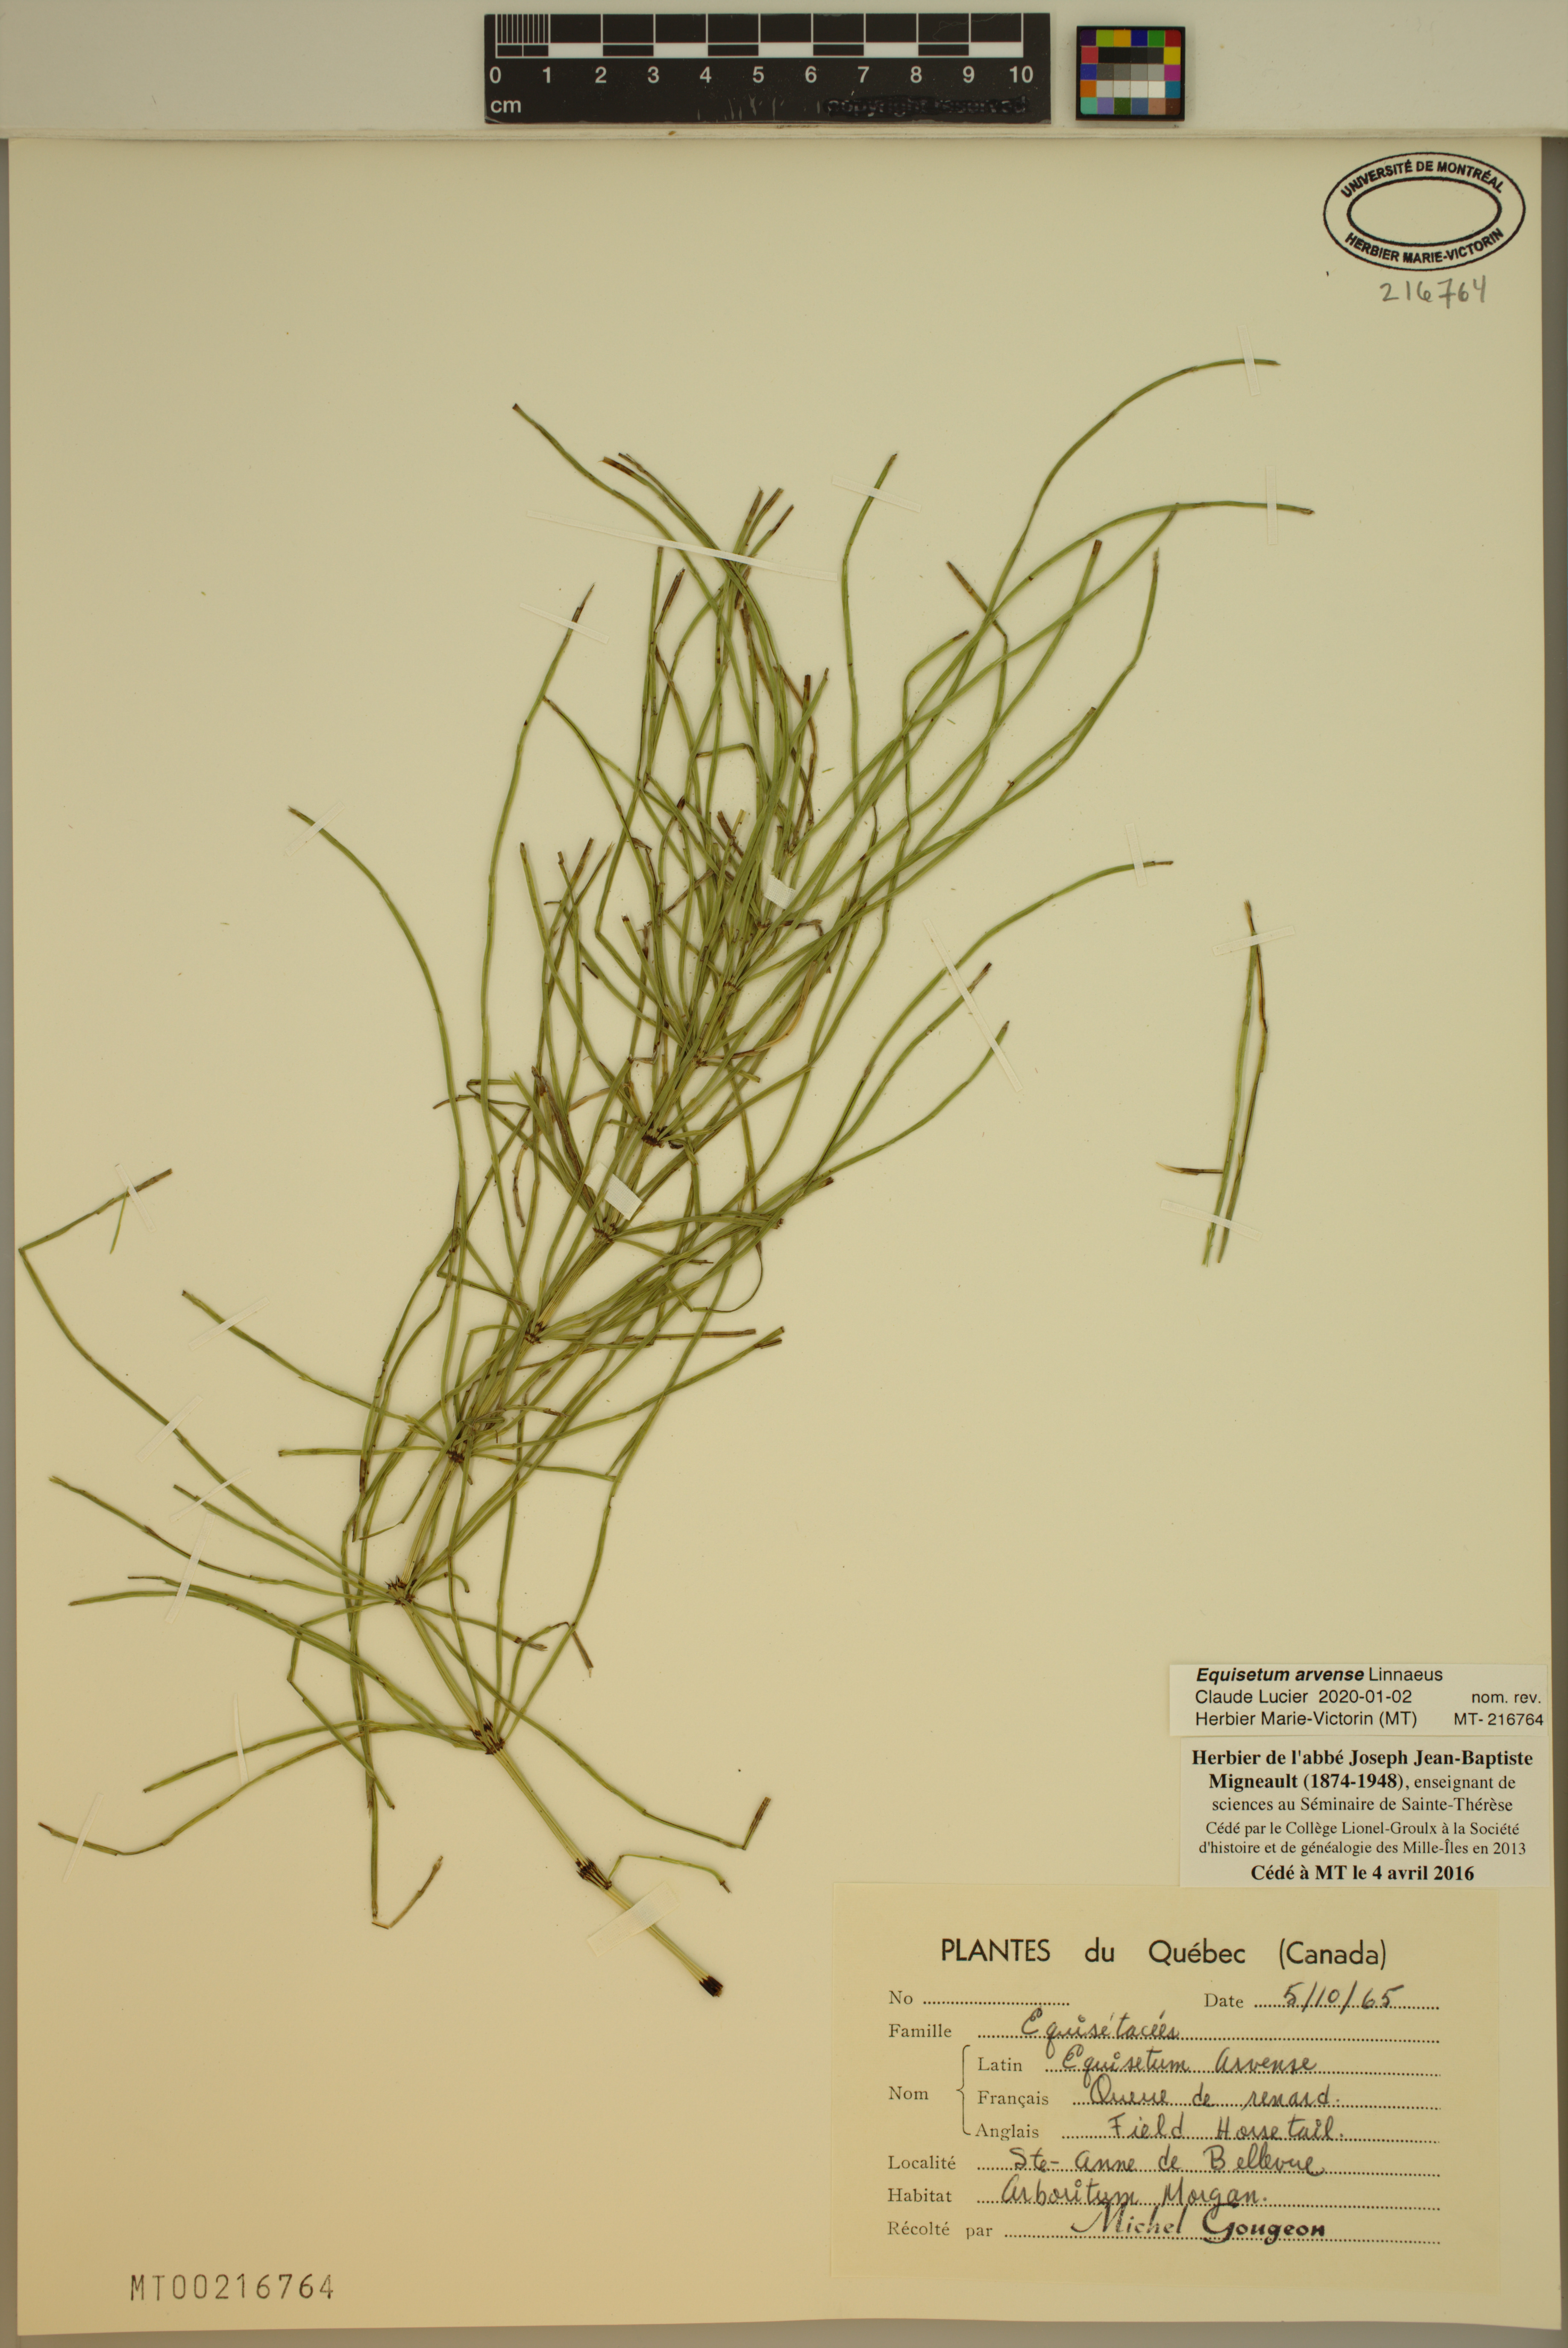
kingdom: Plantae
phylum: Tracheophyta
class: Polypodiopsida
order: Equisetales
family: Equisetaceae
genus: Equisetum
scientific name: Equisetum arvense
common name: Field horsetail
